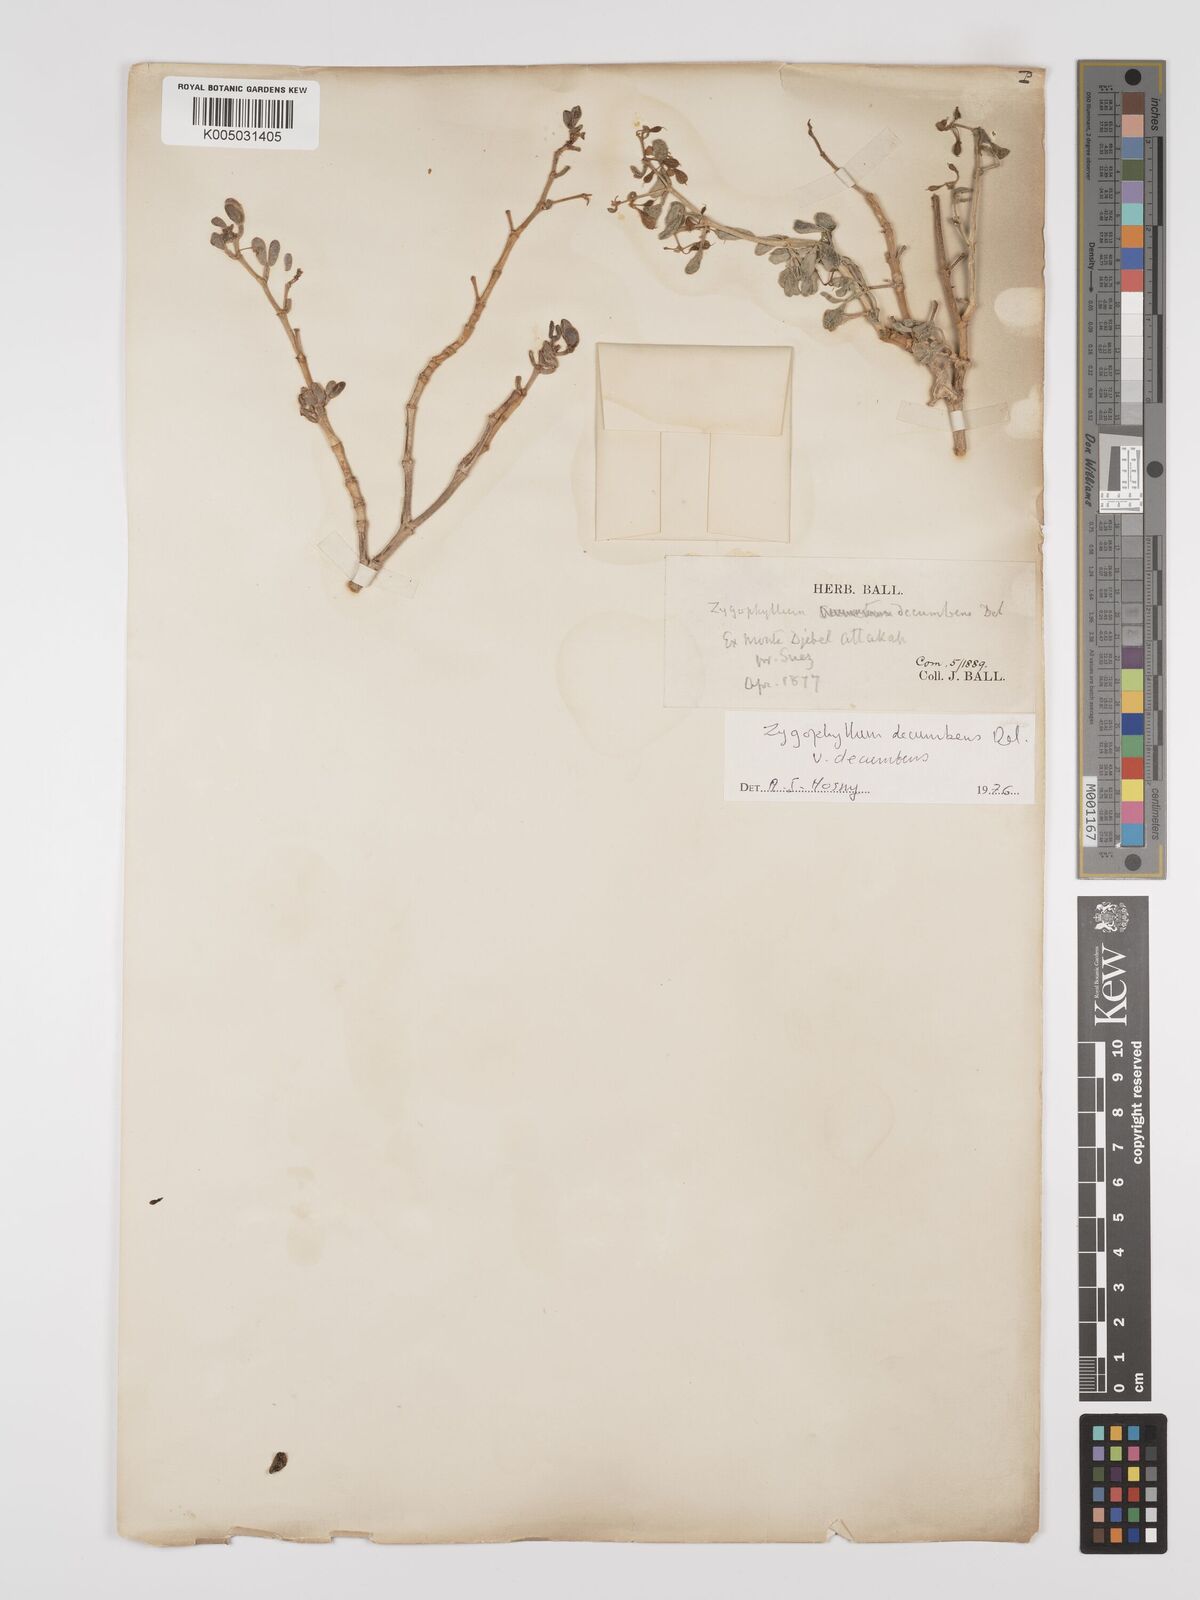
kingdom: Plantae
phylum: Tracheophyta
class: Magnoliopsida
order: Zygophyllales
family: Zygophyllaceae
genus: Tetraena
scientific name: Tetraena decumbens
